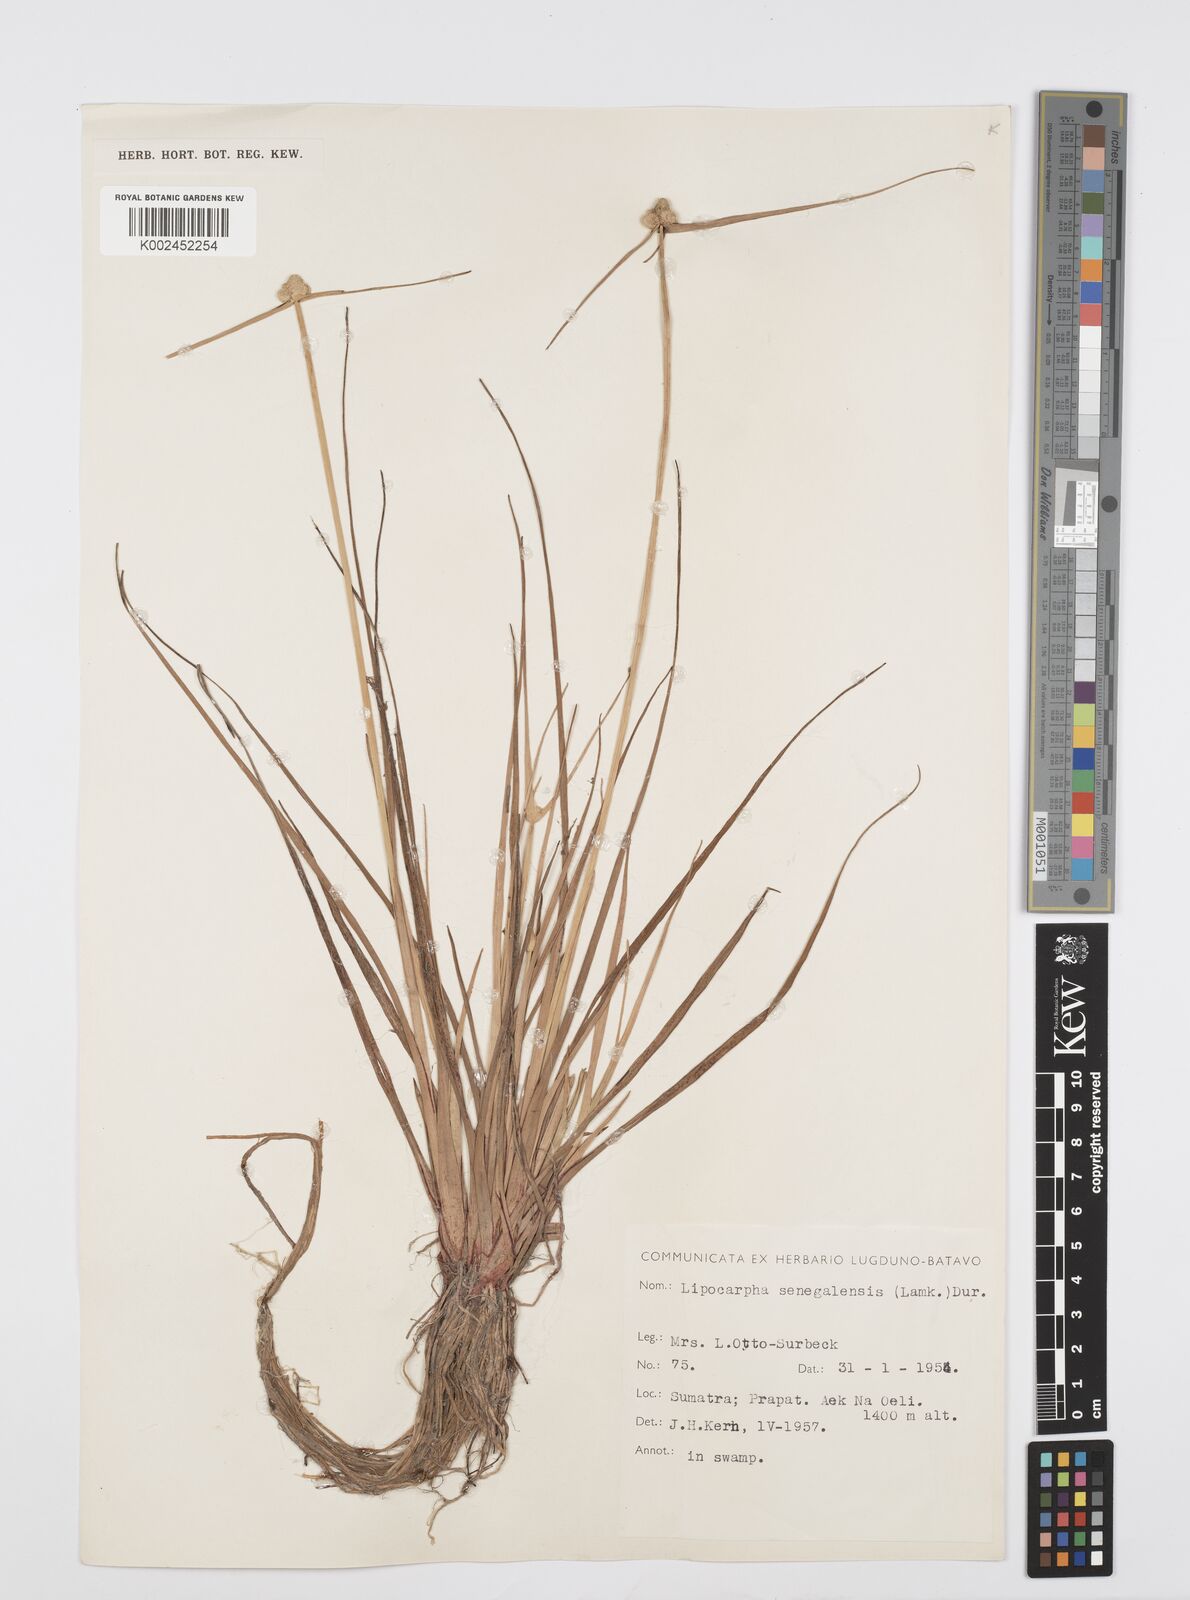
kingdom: Plantae
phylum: Tracheophyta
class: Liliopsida
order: Poales
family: Cyperaceae
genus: Cyperus
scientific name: Cyperus
